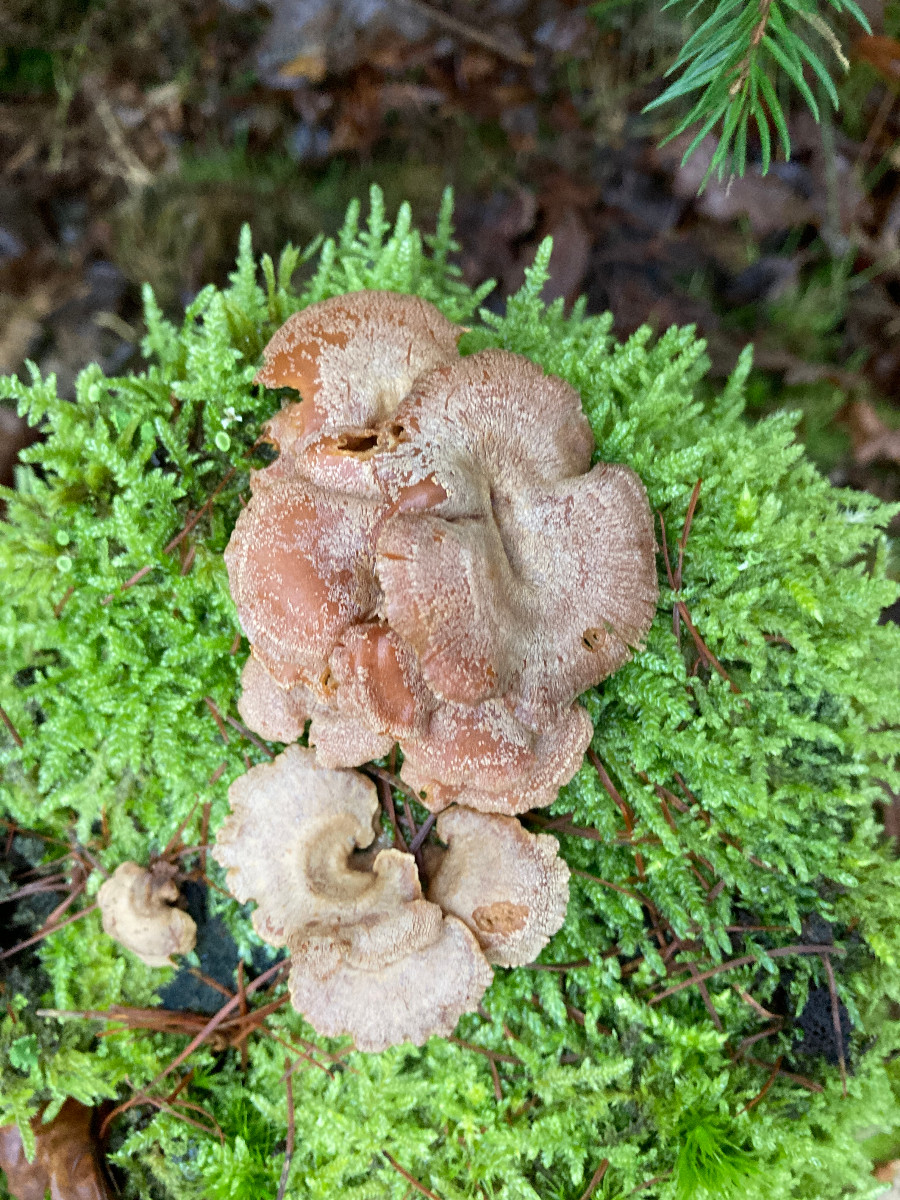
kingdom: Fungi
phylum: Basidiomycota
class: Agaricomycetes
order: Agaricales
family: Mycenaceae
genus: Panellus
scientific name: Panellus stipticus
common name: kliddet epaulethat
